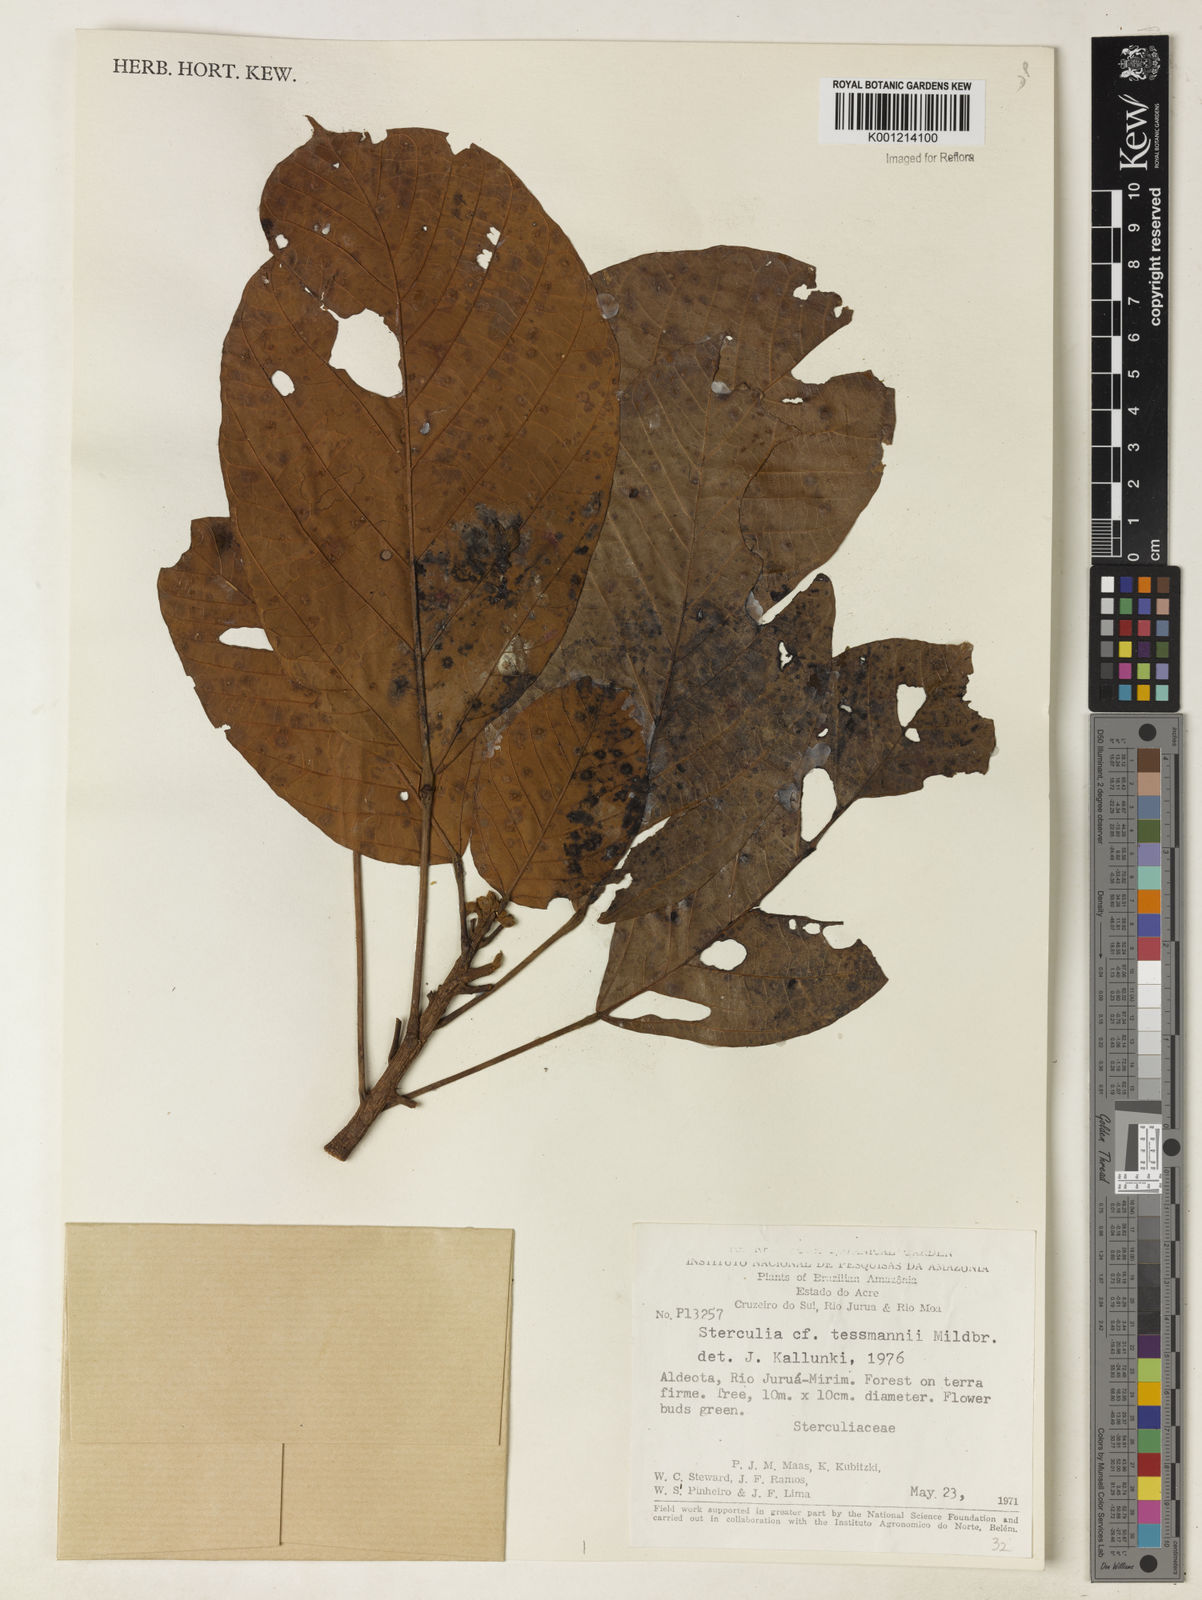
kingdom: Plantae
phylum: Tracheophyta
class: Magnoliopsida
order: Malvales
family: Malvaceae
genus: Sterculia
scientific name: Sterculia tessmannii
